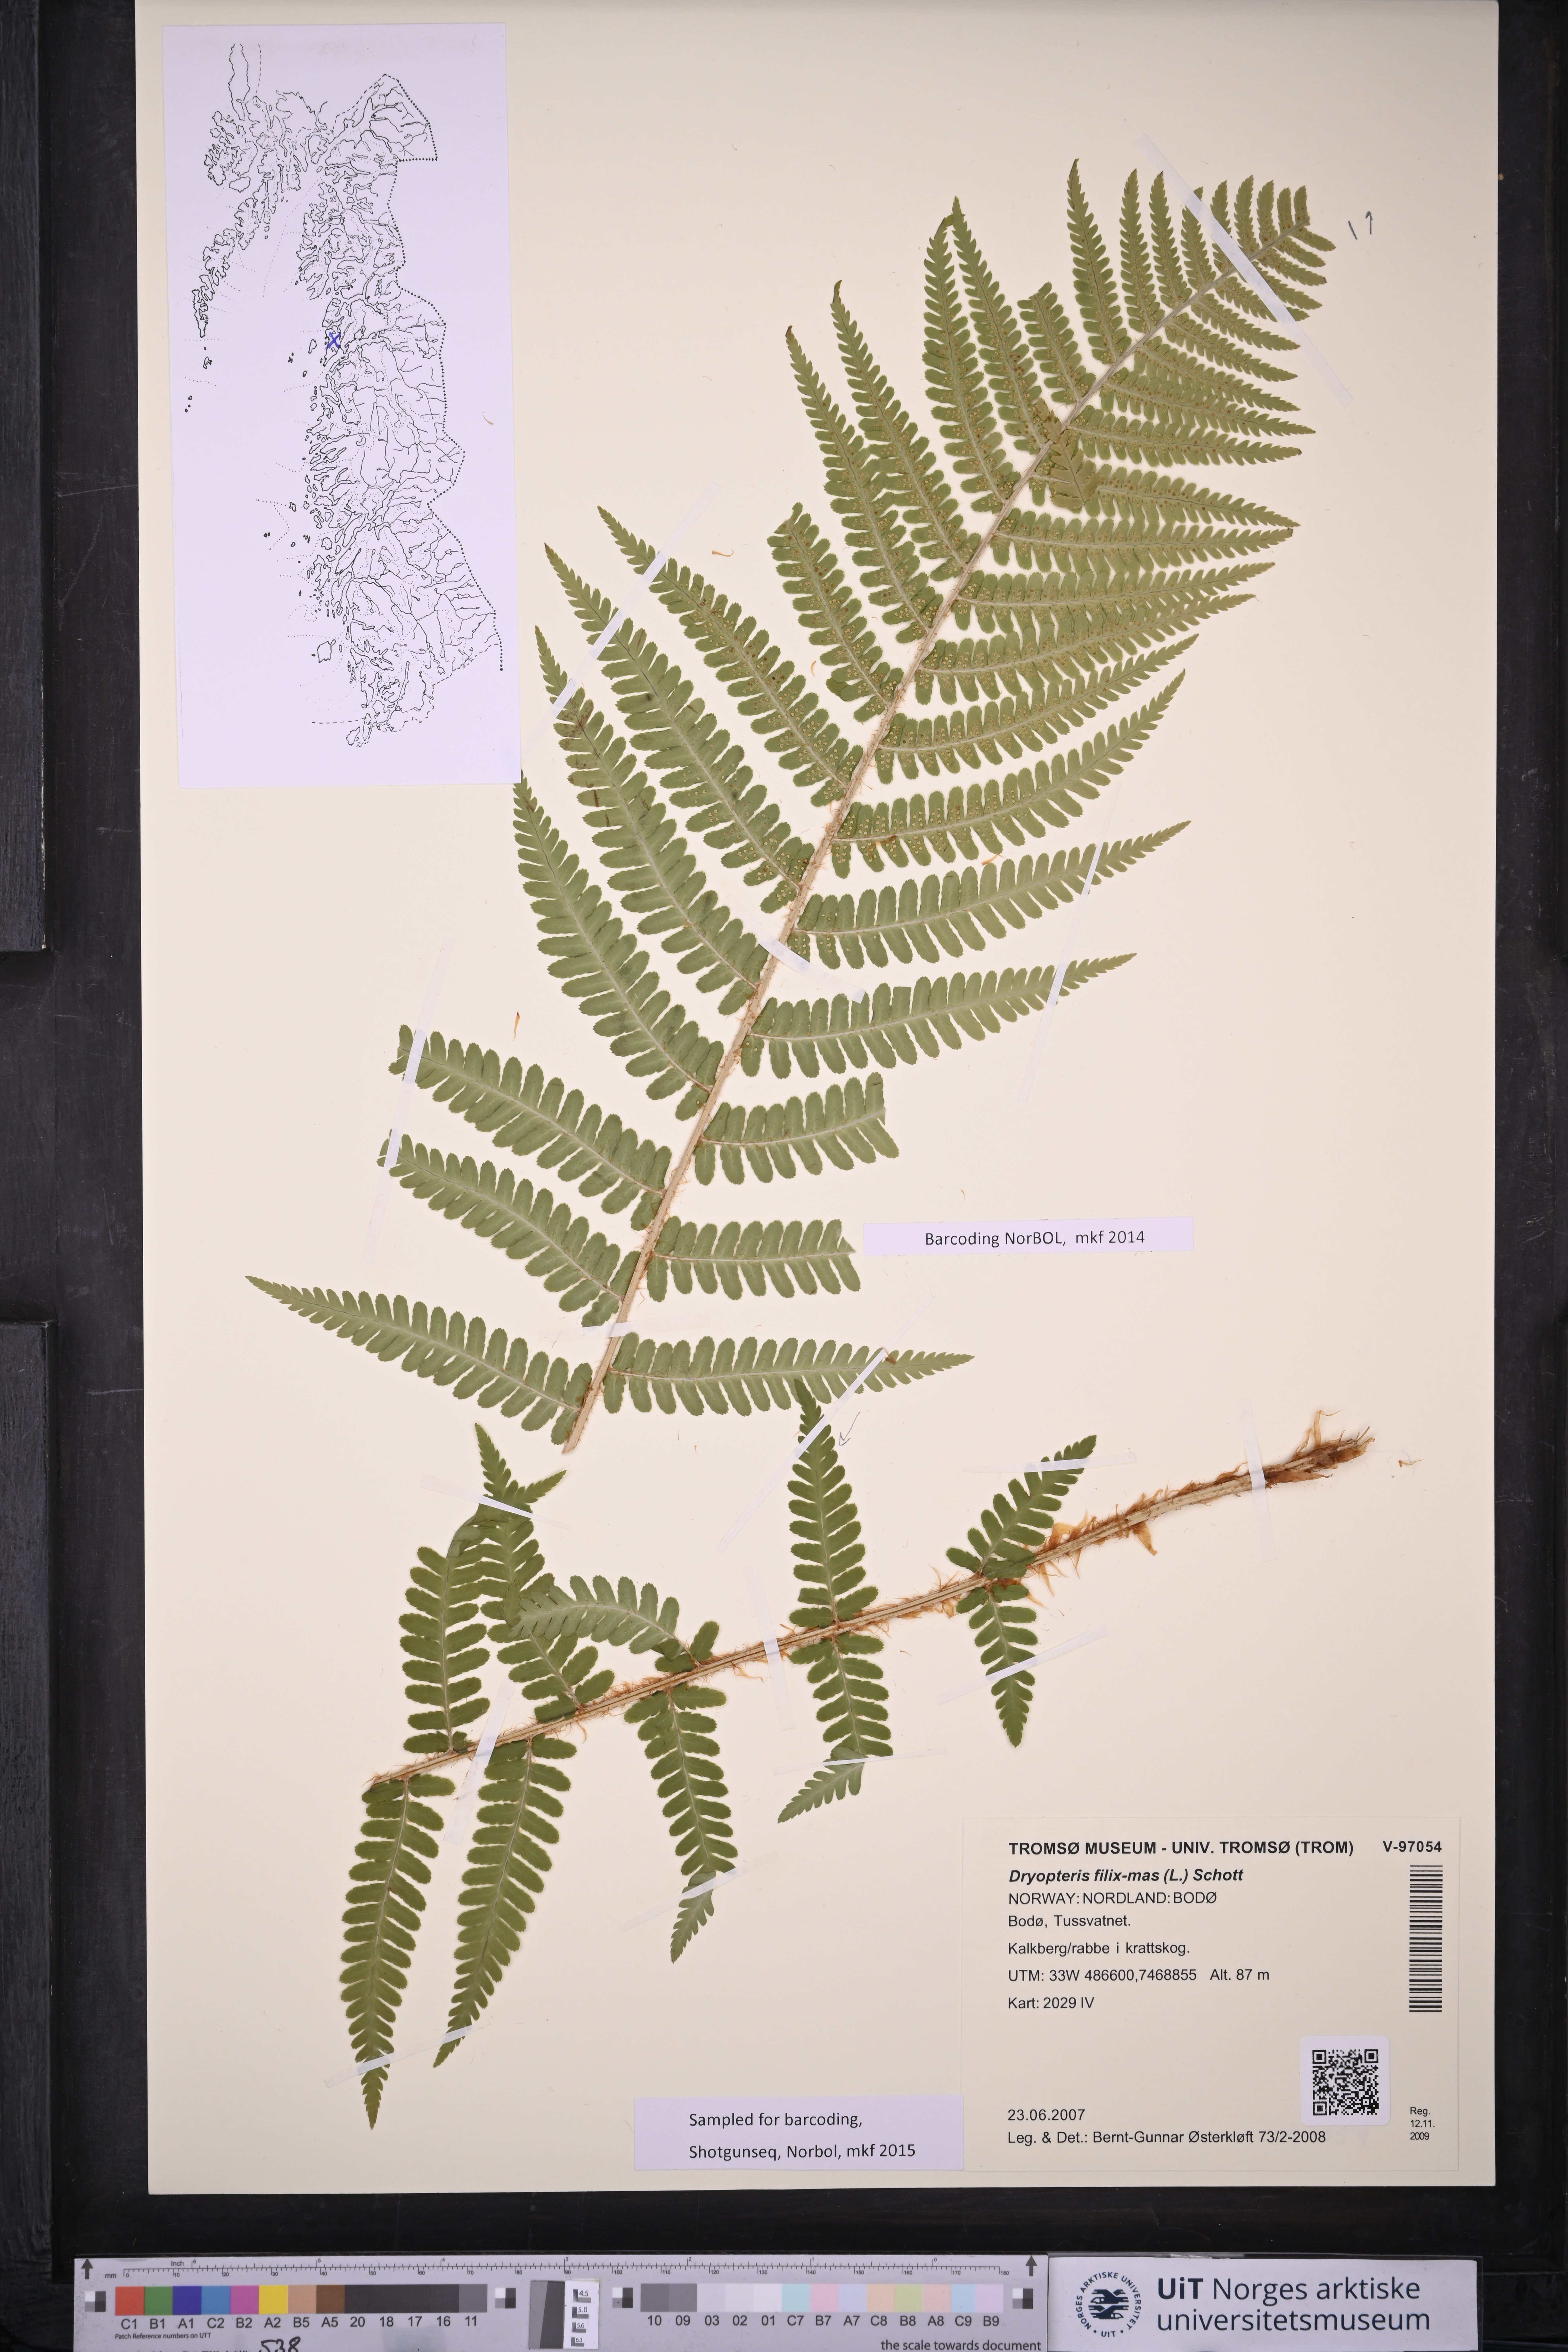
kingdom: Plantae
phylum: Tracheophyta
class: Polypodiopsida
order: Polypodiales
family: Dryopteridaceae
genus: Dryopteris
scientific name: Dryopteris filix-mas
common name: Male fern
